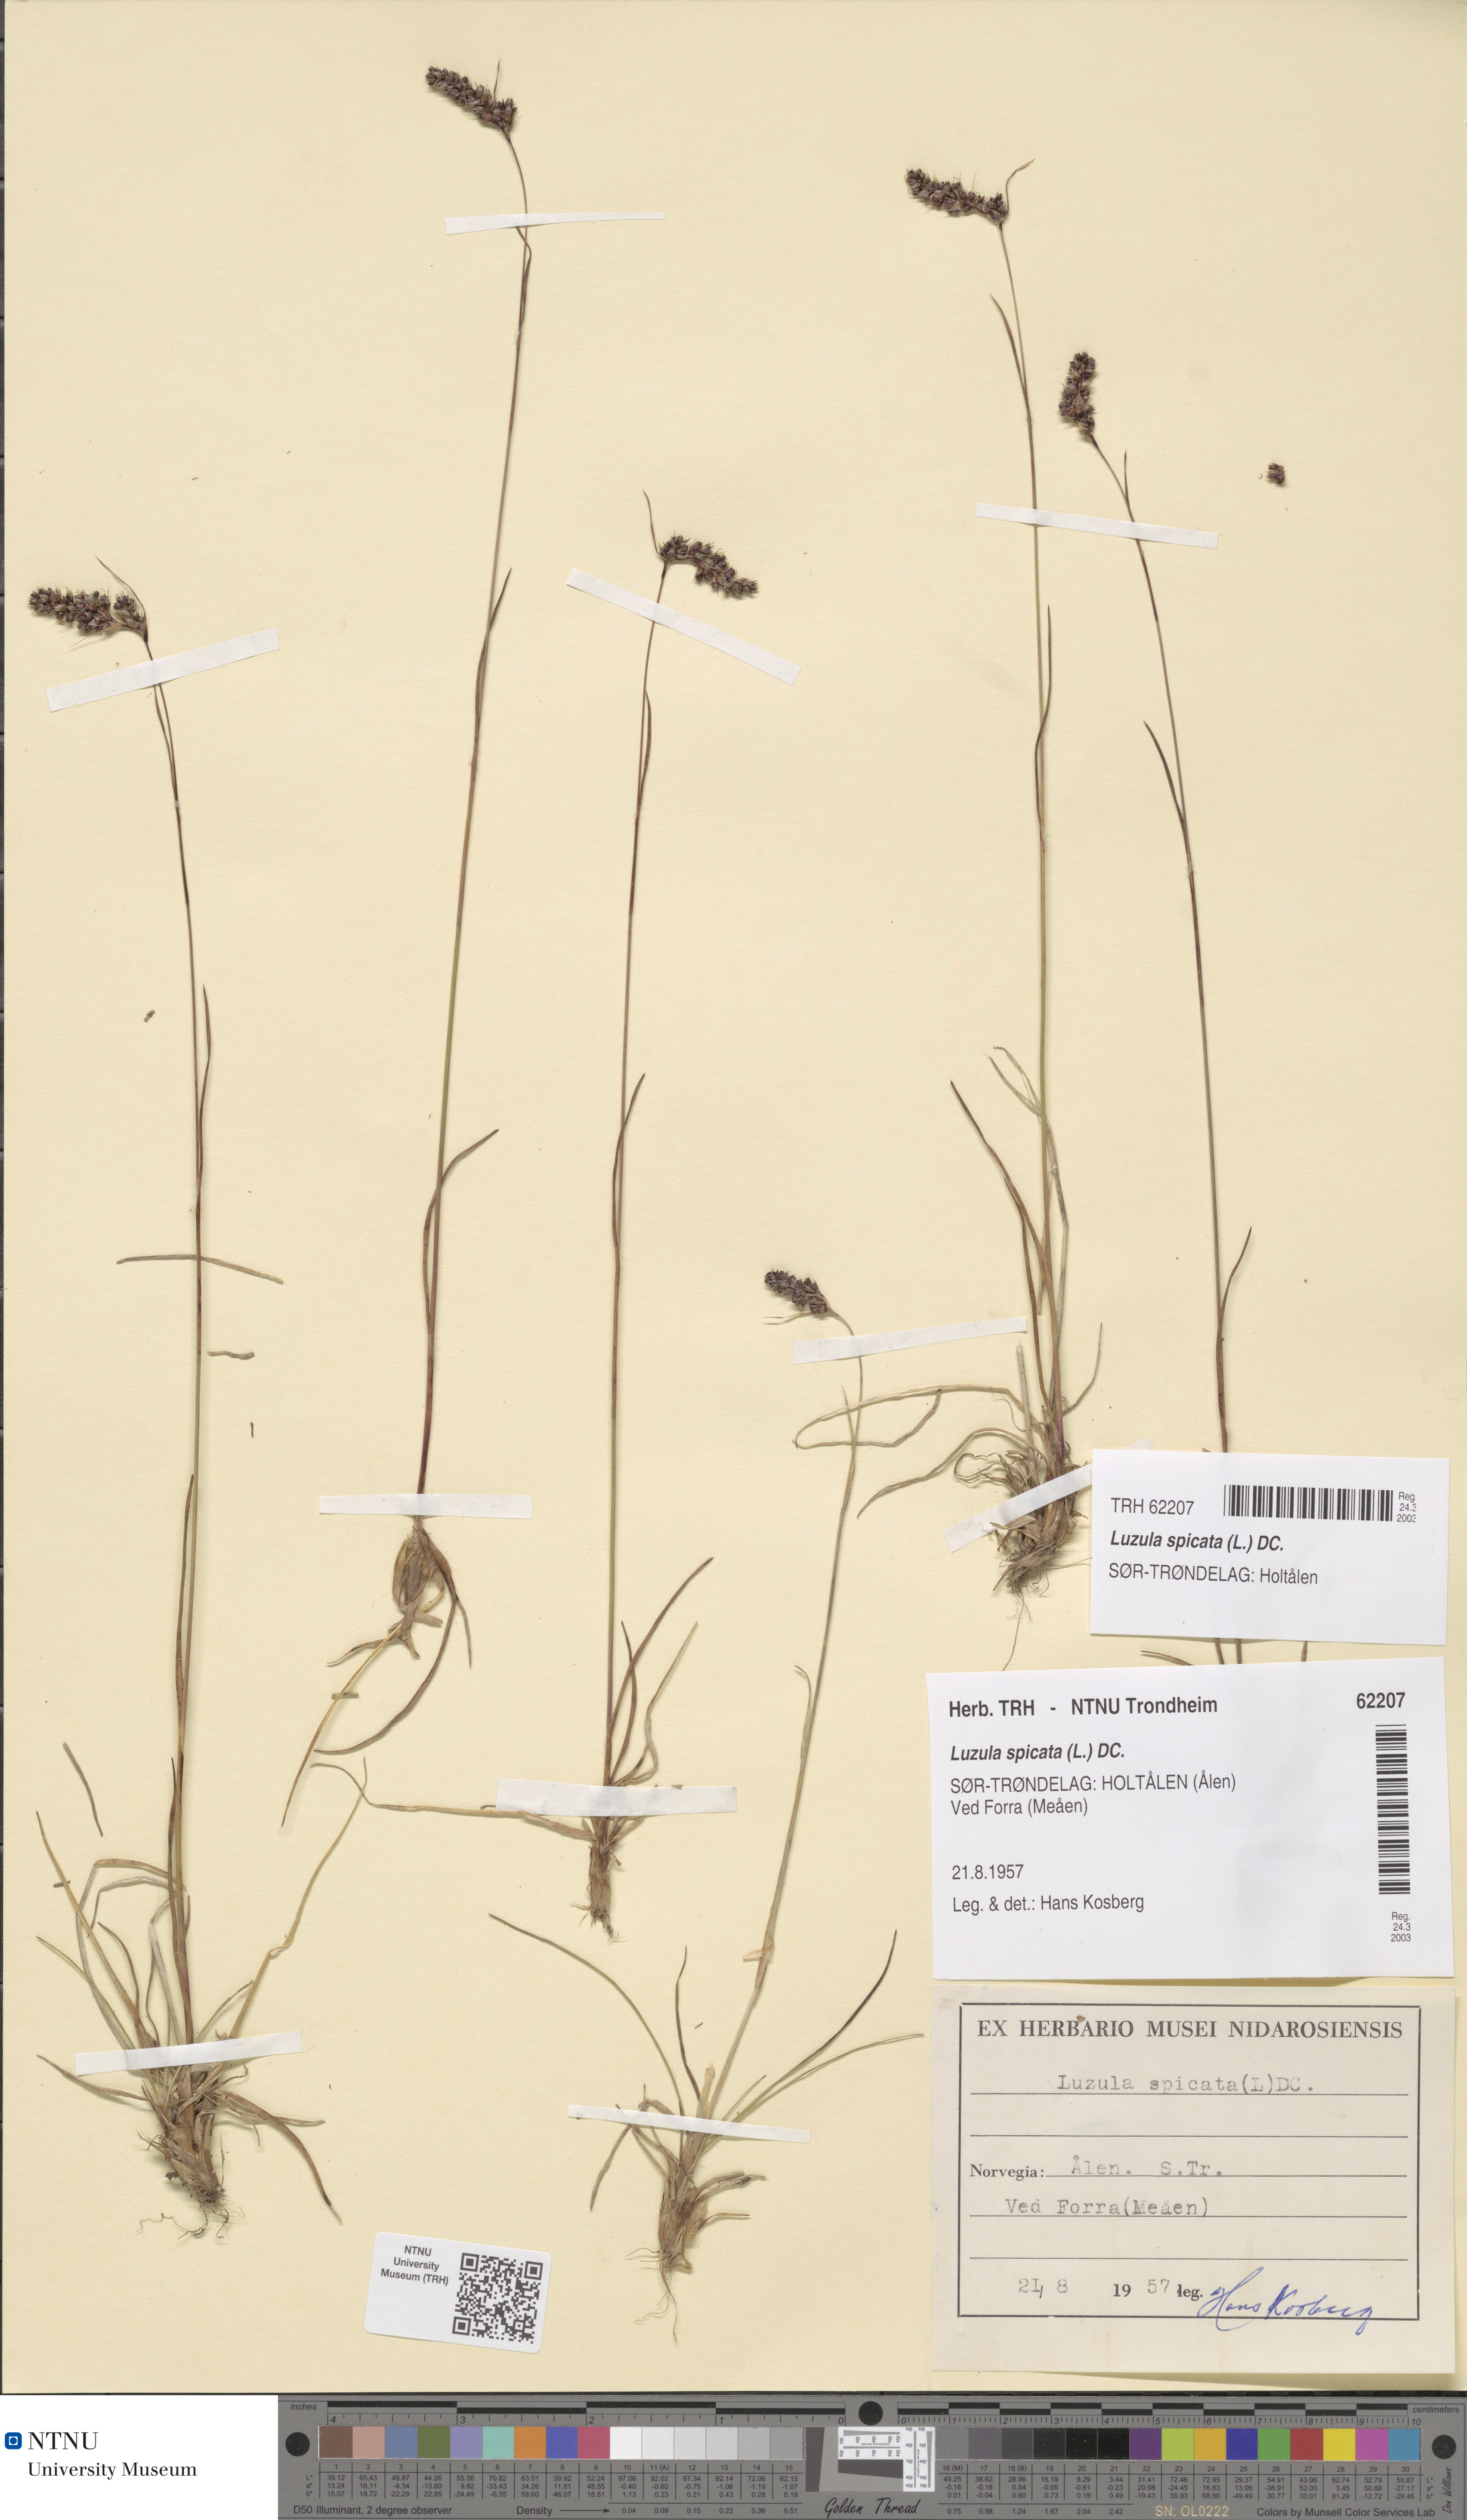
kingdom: Plantae
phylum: Tracheophyta
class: Liliopsida
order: Poales
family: Juncaceae
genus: Luzula
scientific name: Luzula spicata
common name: Spiked wood-rush
